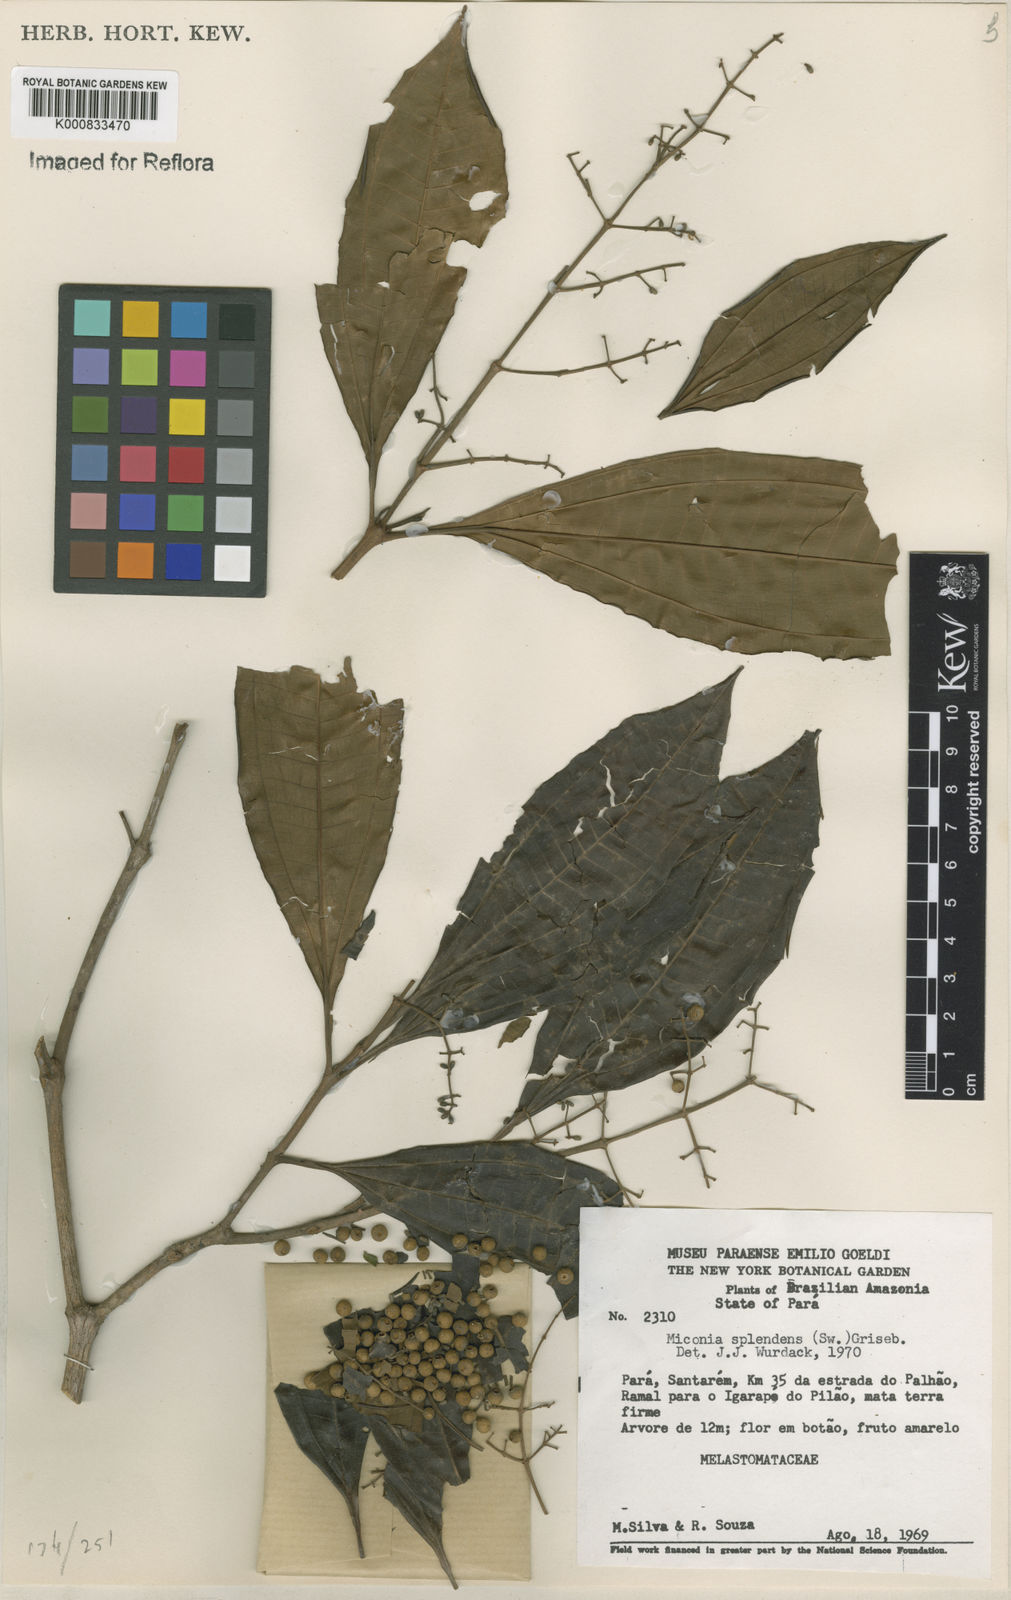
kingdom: Plantae
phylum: Tracheophyta
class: Magnoliopsida
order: Myrtales
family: Melastomataceae
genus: Miconia
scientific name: Miconia splendens
